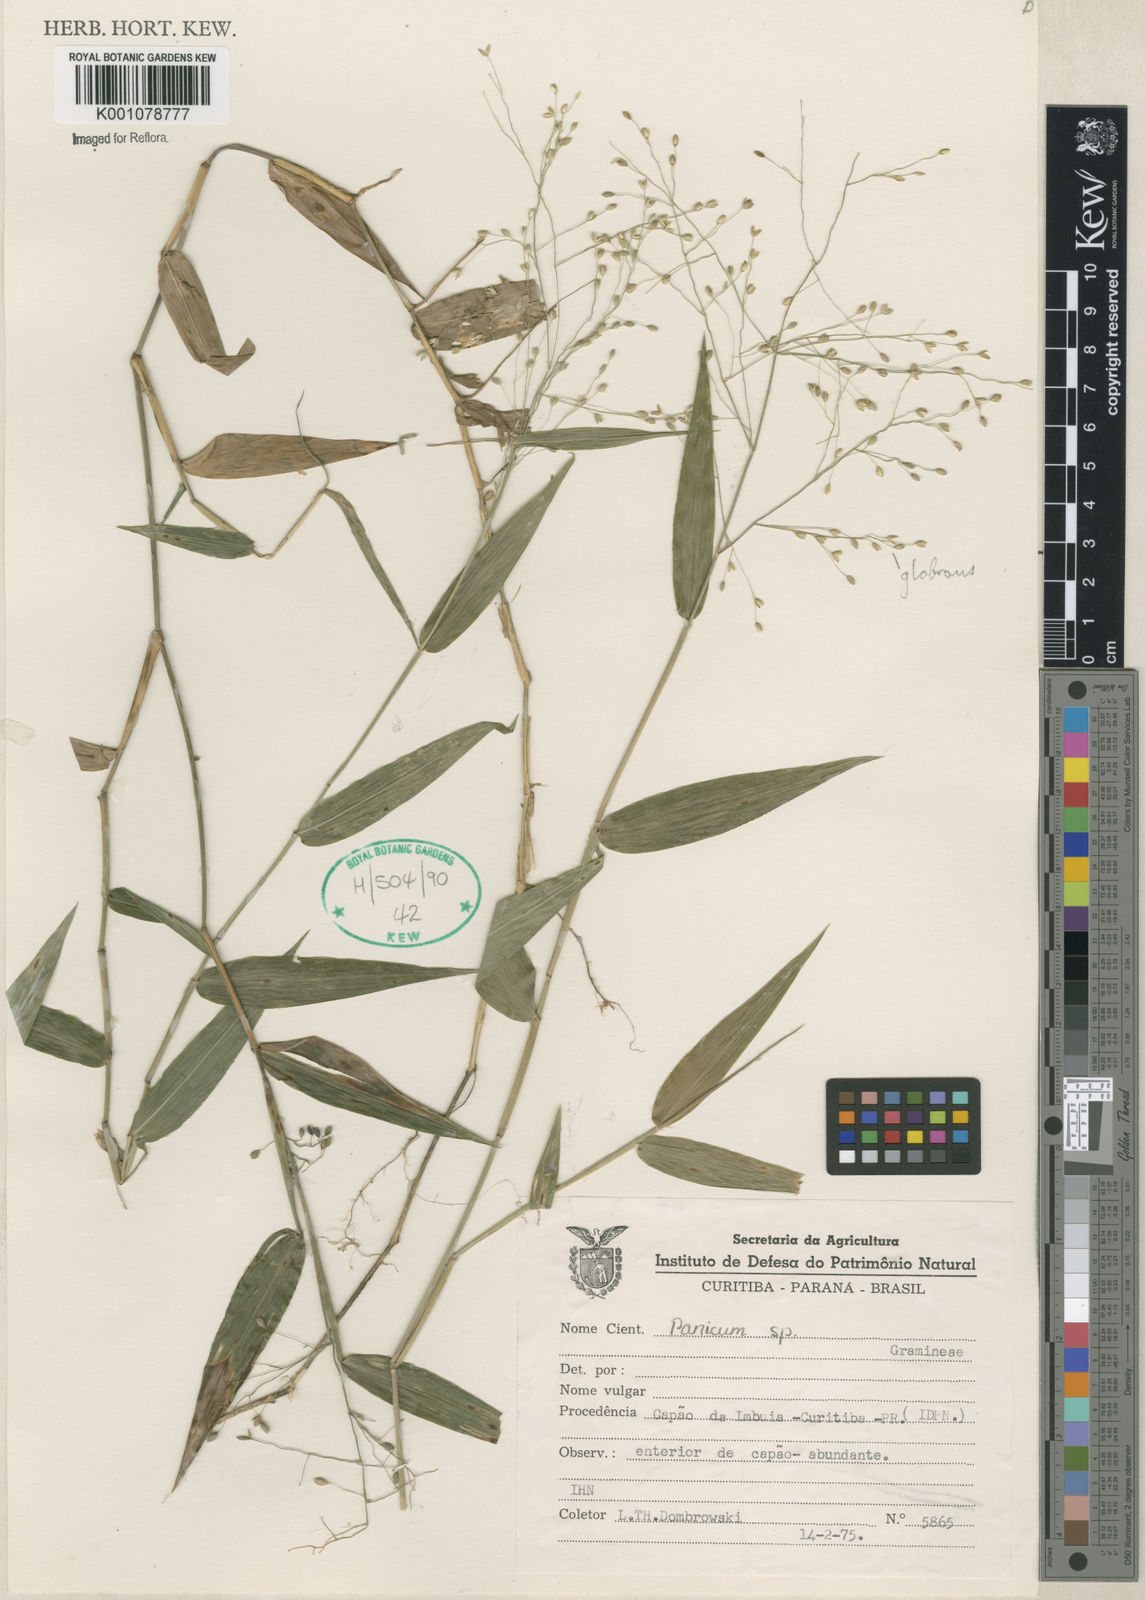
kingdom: Plantae
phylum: Tracheophyta
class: Liliopsida
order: Poales
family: Poaceae
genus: Panicum
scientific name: Panicum
